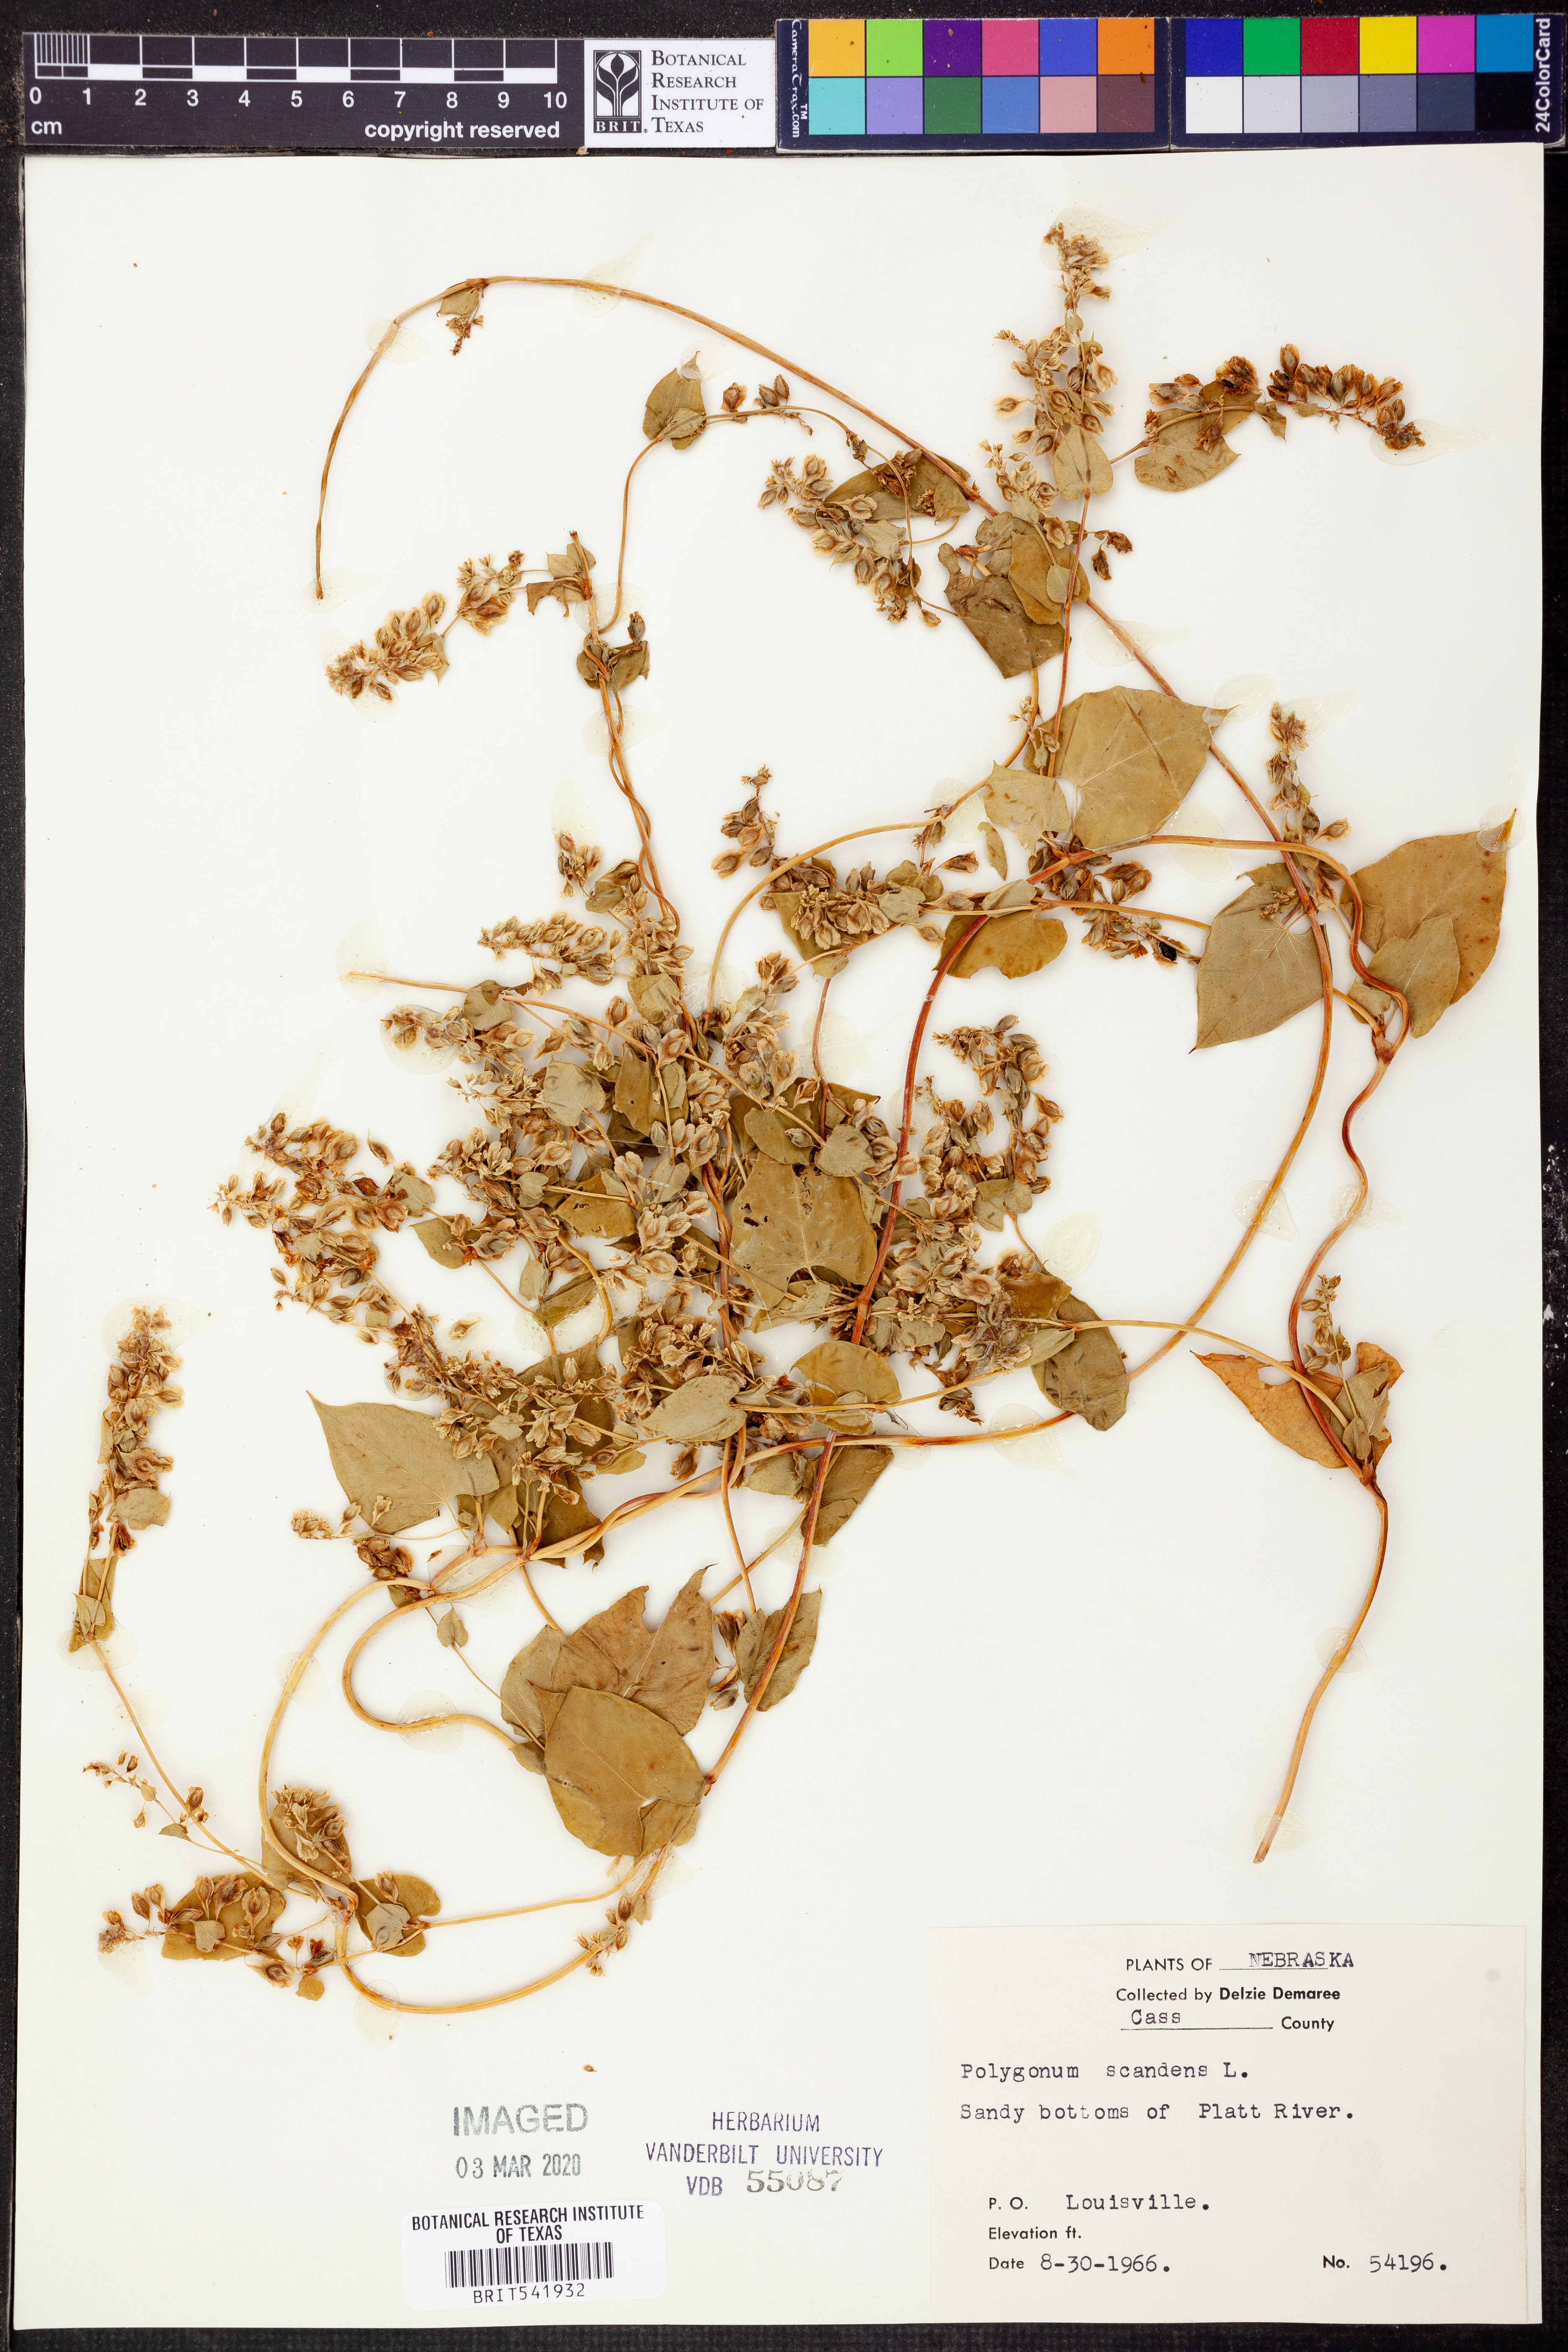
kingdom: Plantae
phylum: Tracheophyta
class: Magnoliopsida
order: Caryophyllales
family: Polygonaceae
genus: Fallopia
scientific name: Fallopia scandens
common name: Climbing false buckwheat
